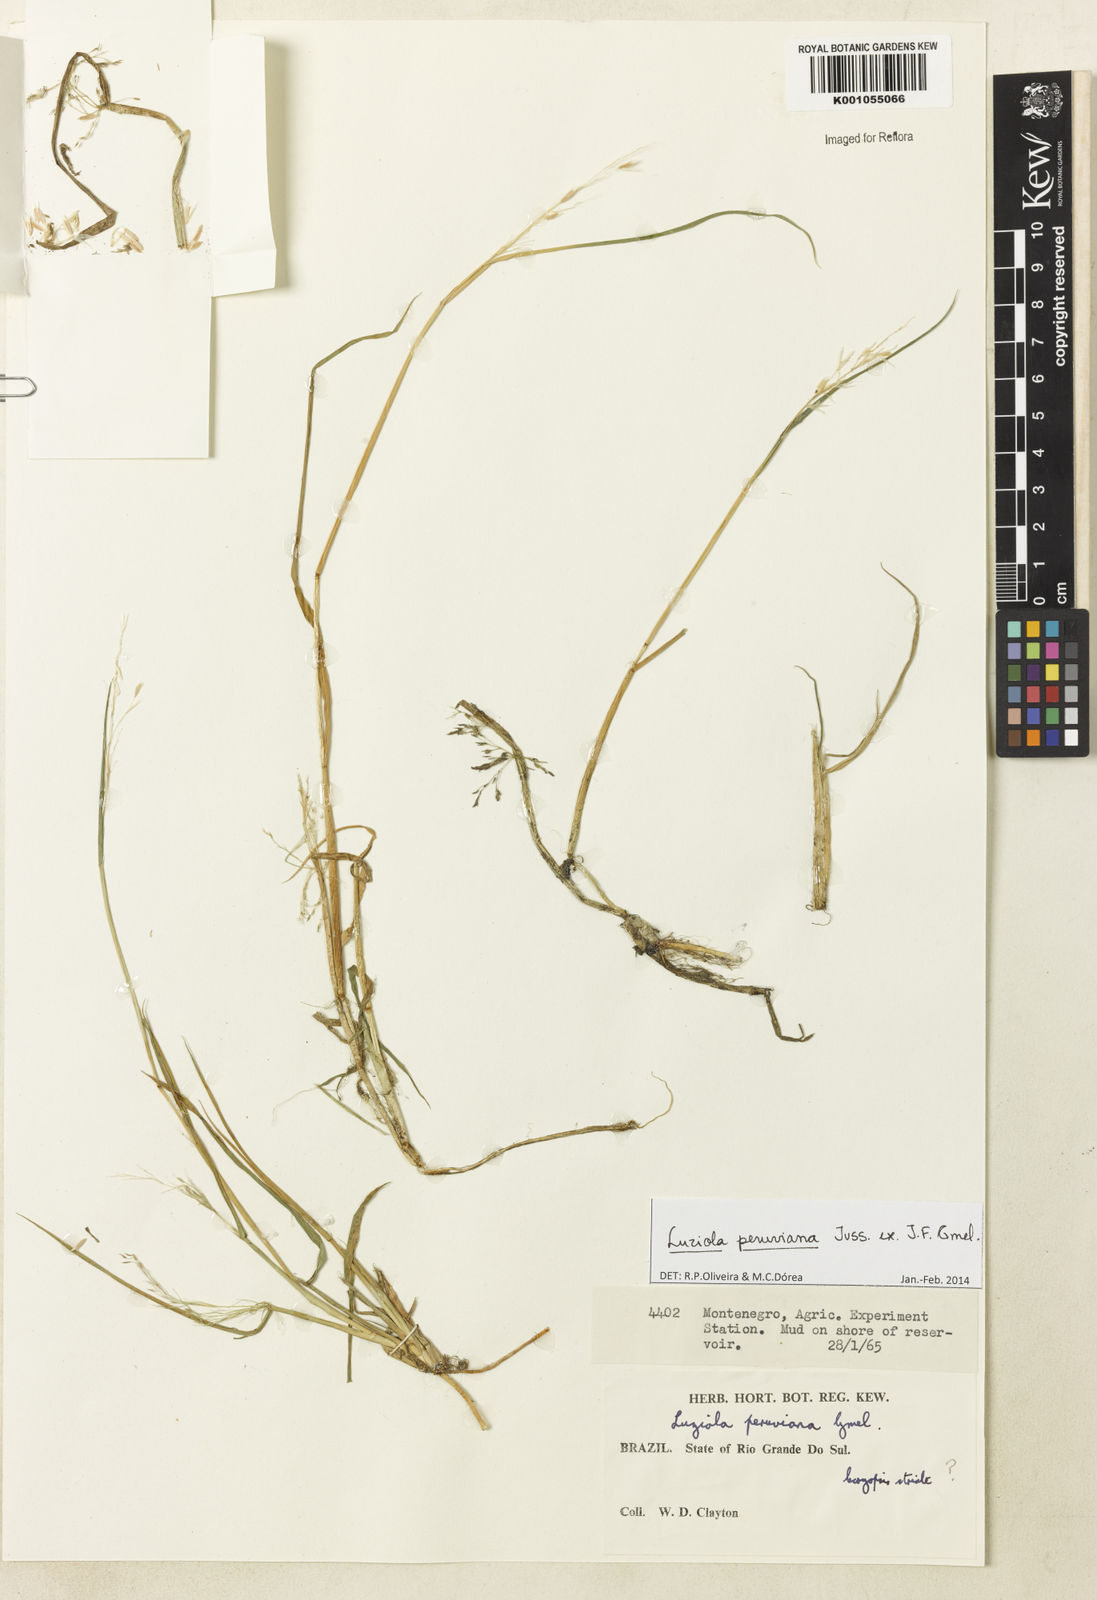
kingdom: Plantae
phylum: Tracheophyta
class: Liliopsida
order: Poales
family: Poaceae
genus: Luziola
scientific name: Luziola peruviana
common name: Peruvian watergrass
